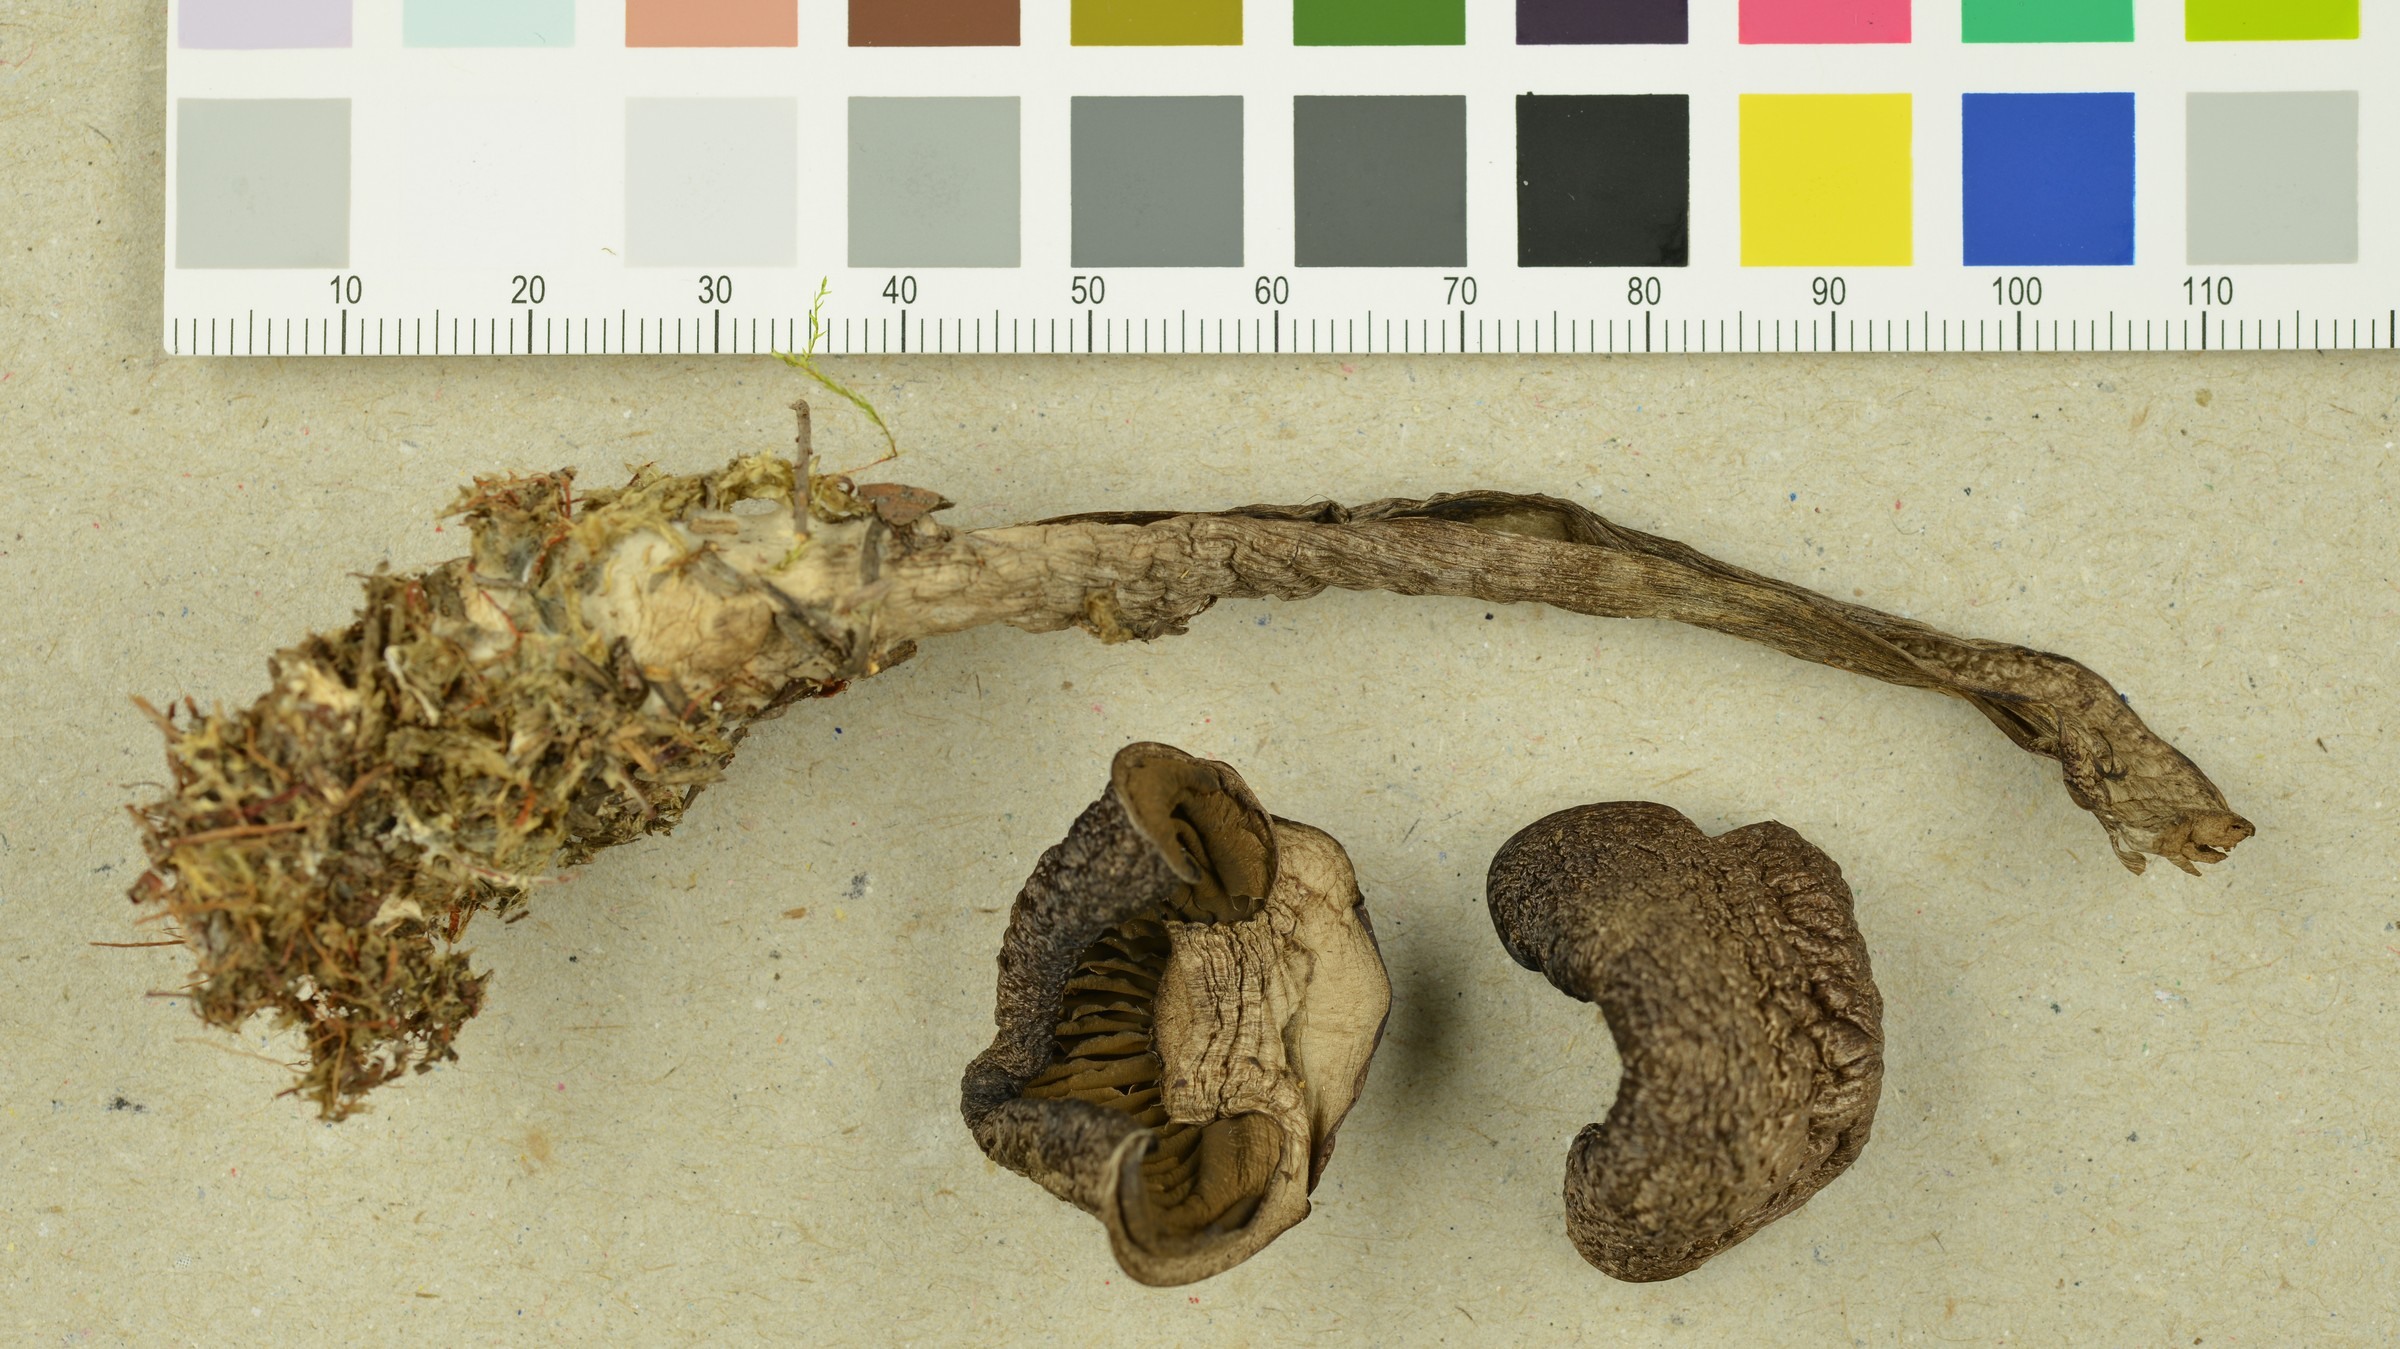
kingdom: Fungi
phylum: Basidiomycota
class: Agaricomycetes
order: Agaricales
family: Cortinariaceae
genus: Cortinarius
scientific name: Cortinarius clarobrunneus
